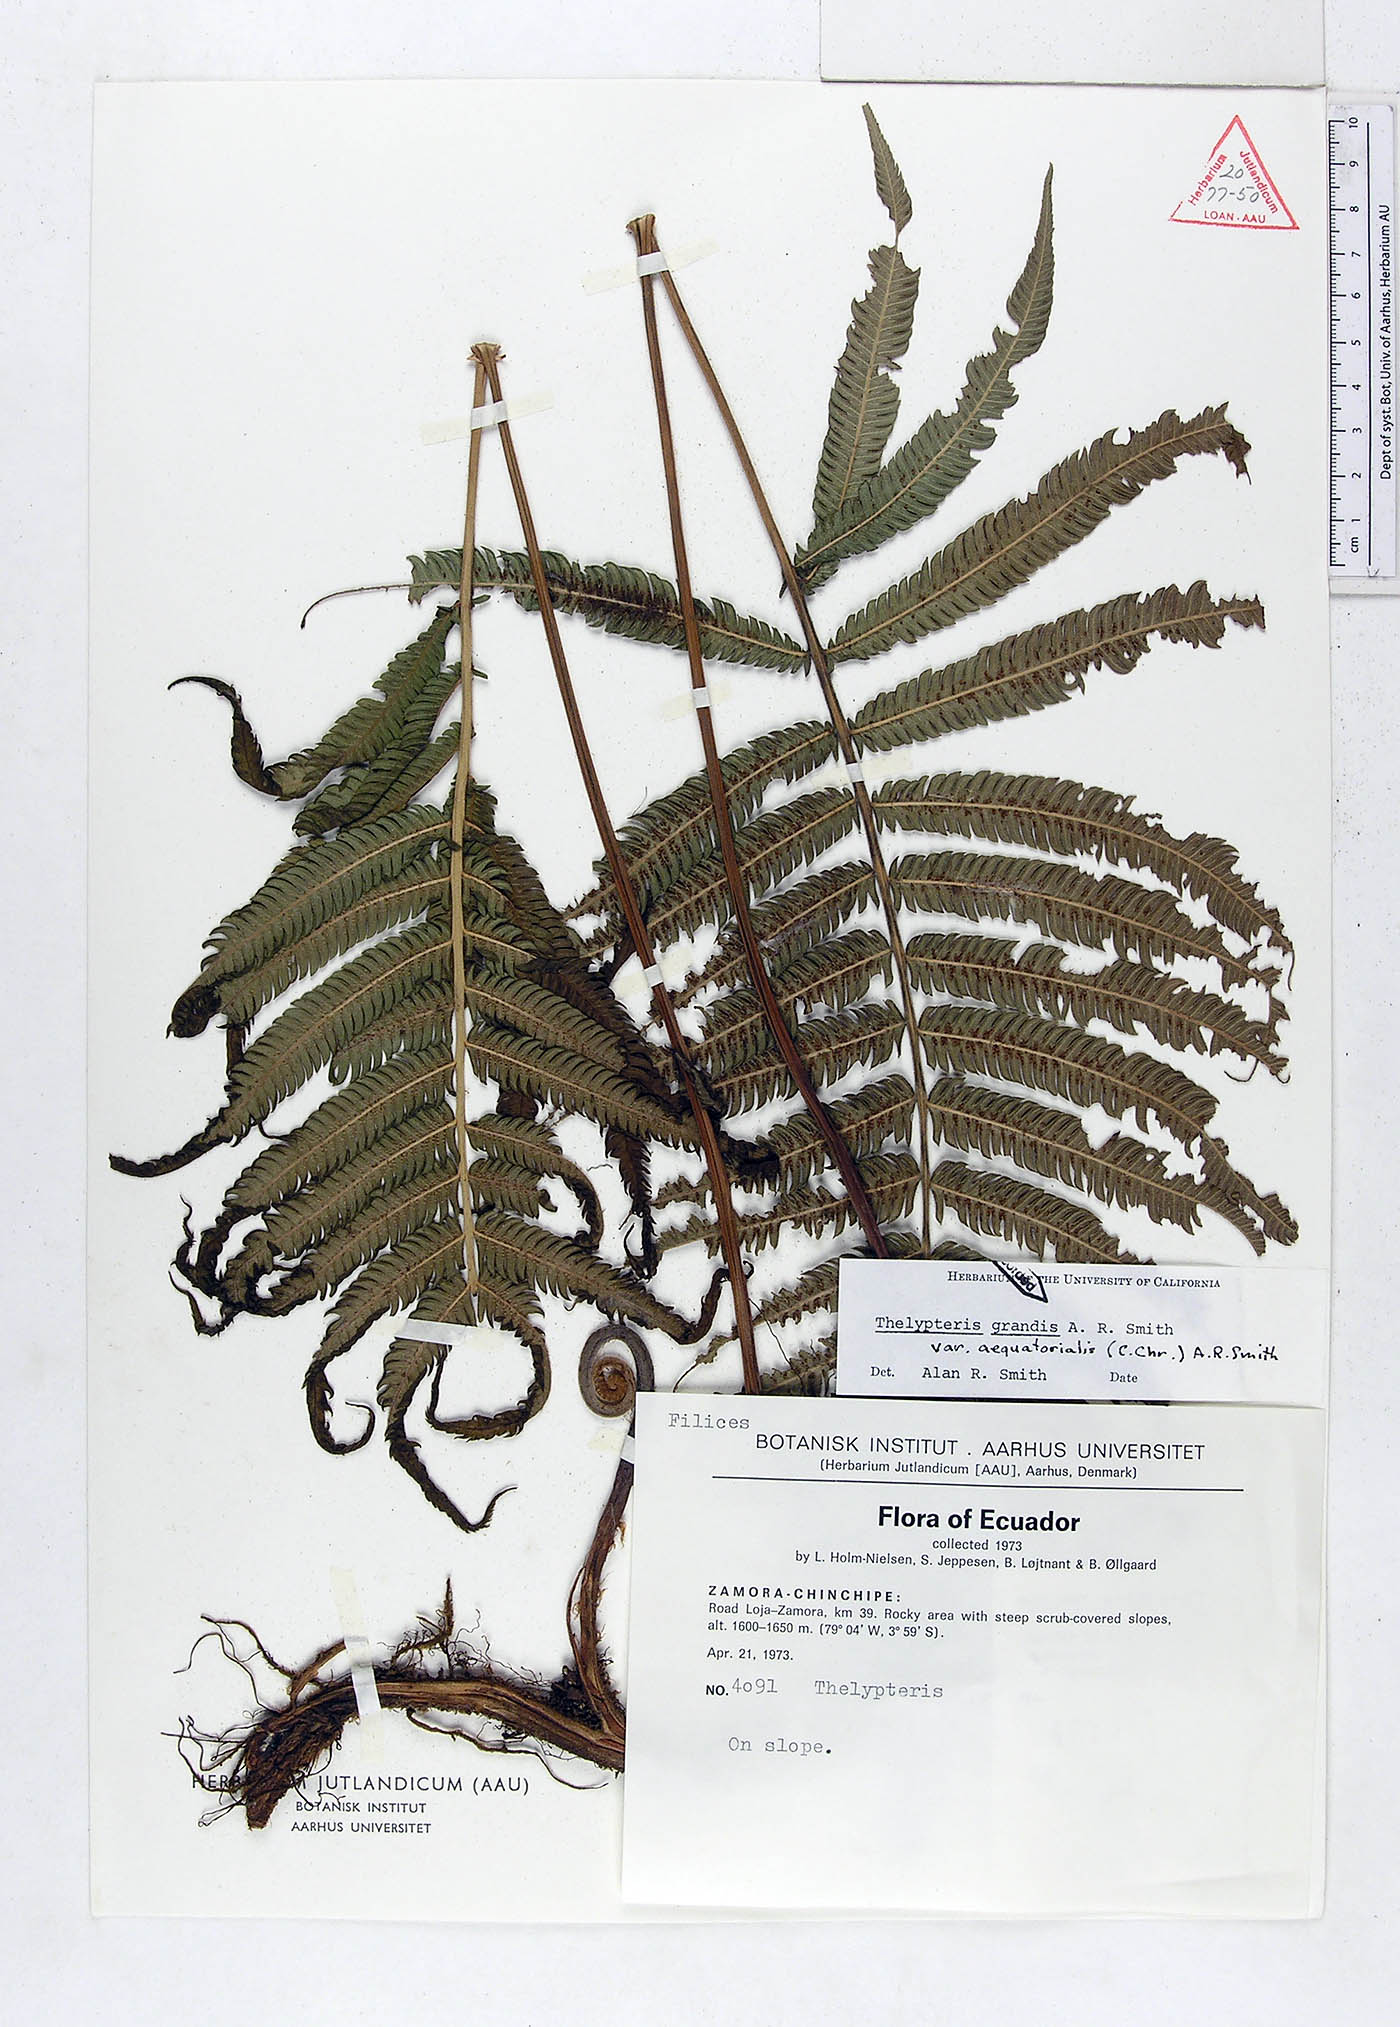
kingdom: Plantae
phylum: Tracheophyta
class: Polypodiopsida
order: Polypodiales
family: Thelypteridaceae
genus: Pelazoneuron
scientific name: Pelazoneuron abruptum
